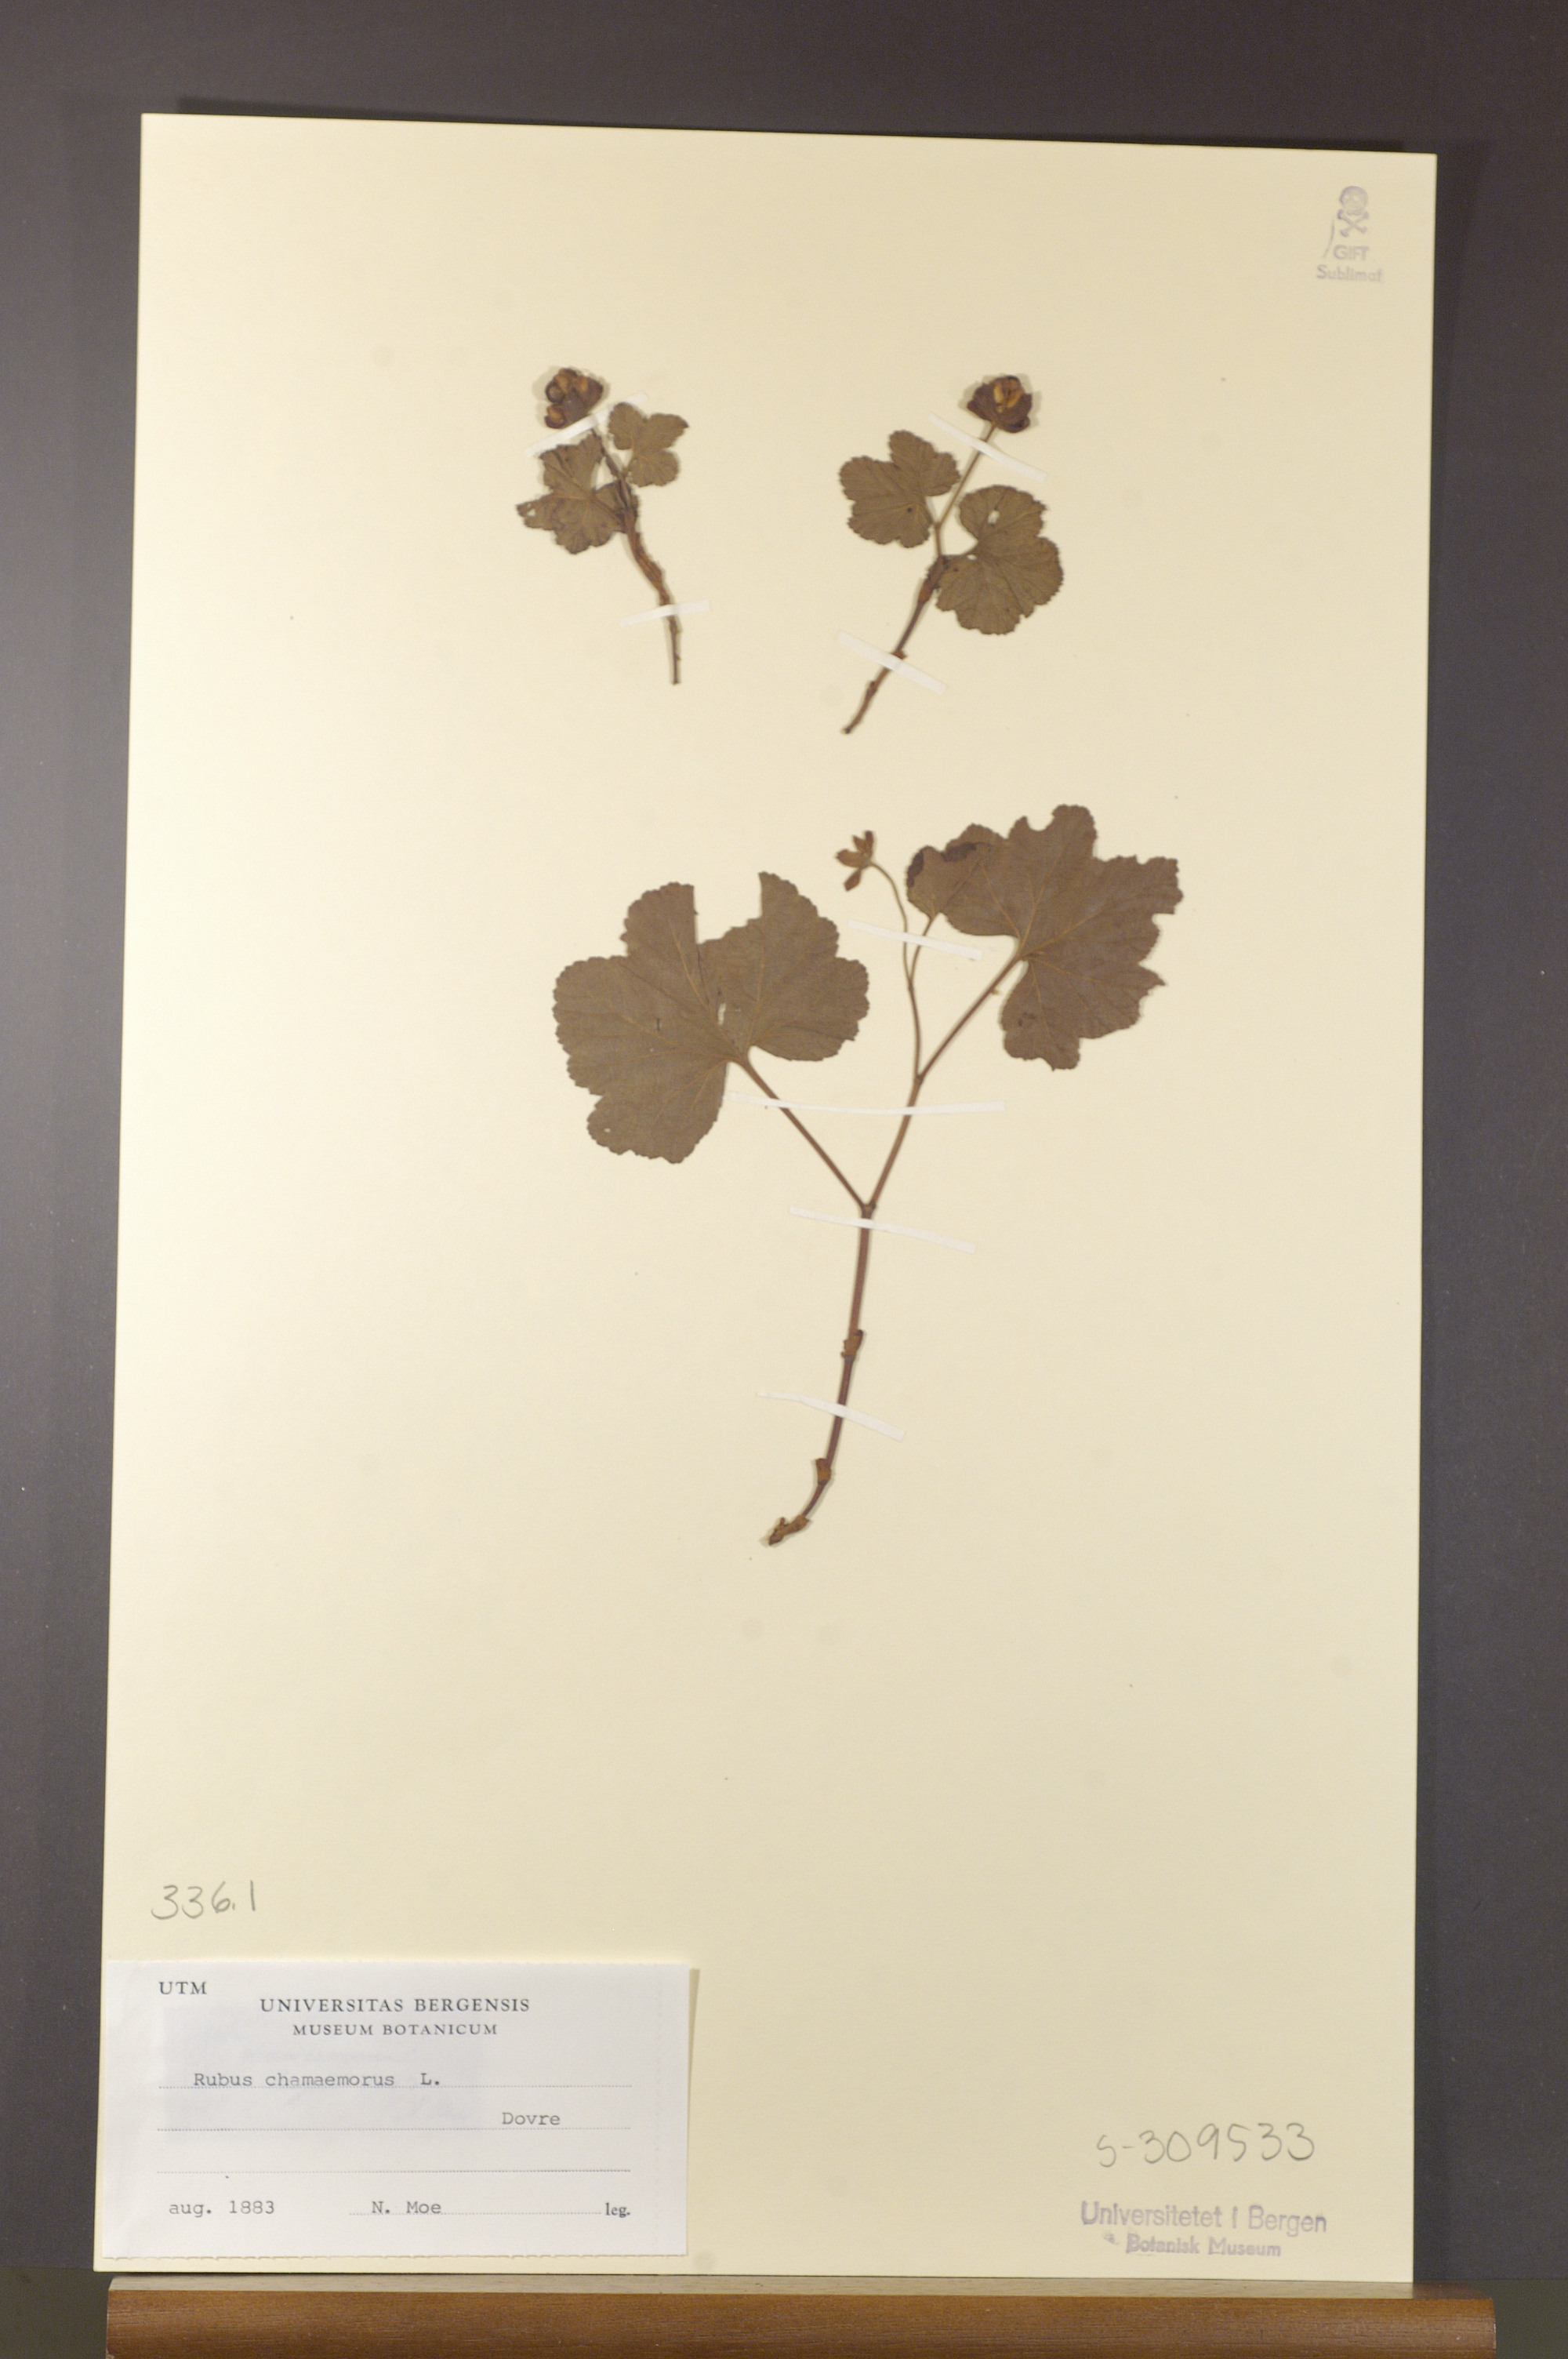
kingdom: Plantae
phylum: Tracheophyta
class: Magnoliopsida
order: Rosales
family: Rosaceae
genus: Rubus
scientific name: Rubus chamaemorus
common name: Cloudberry
